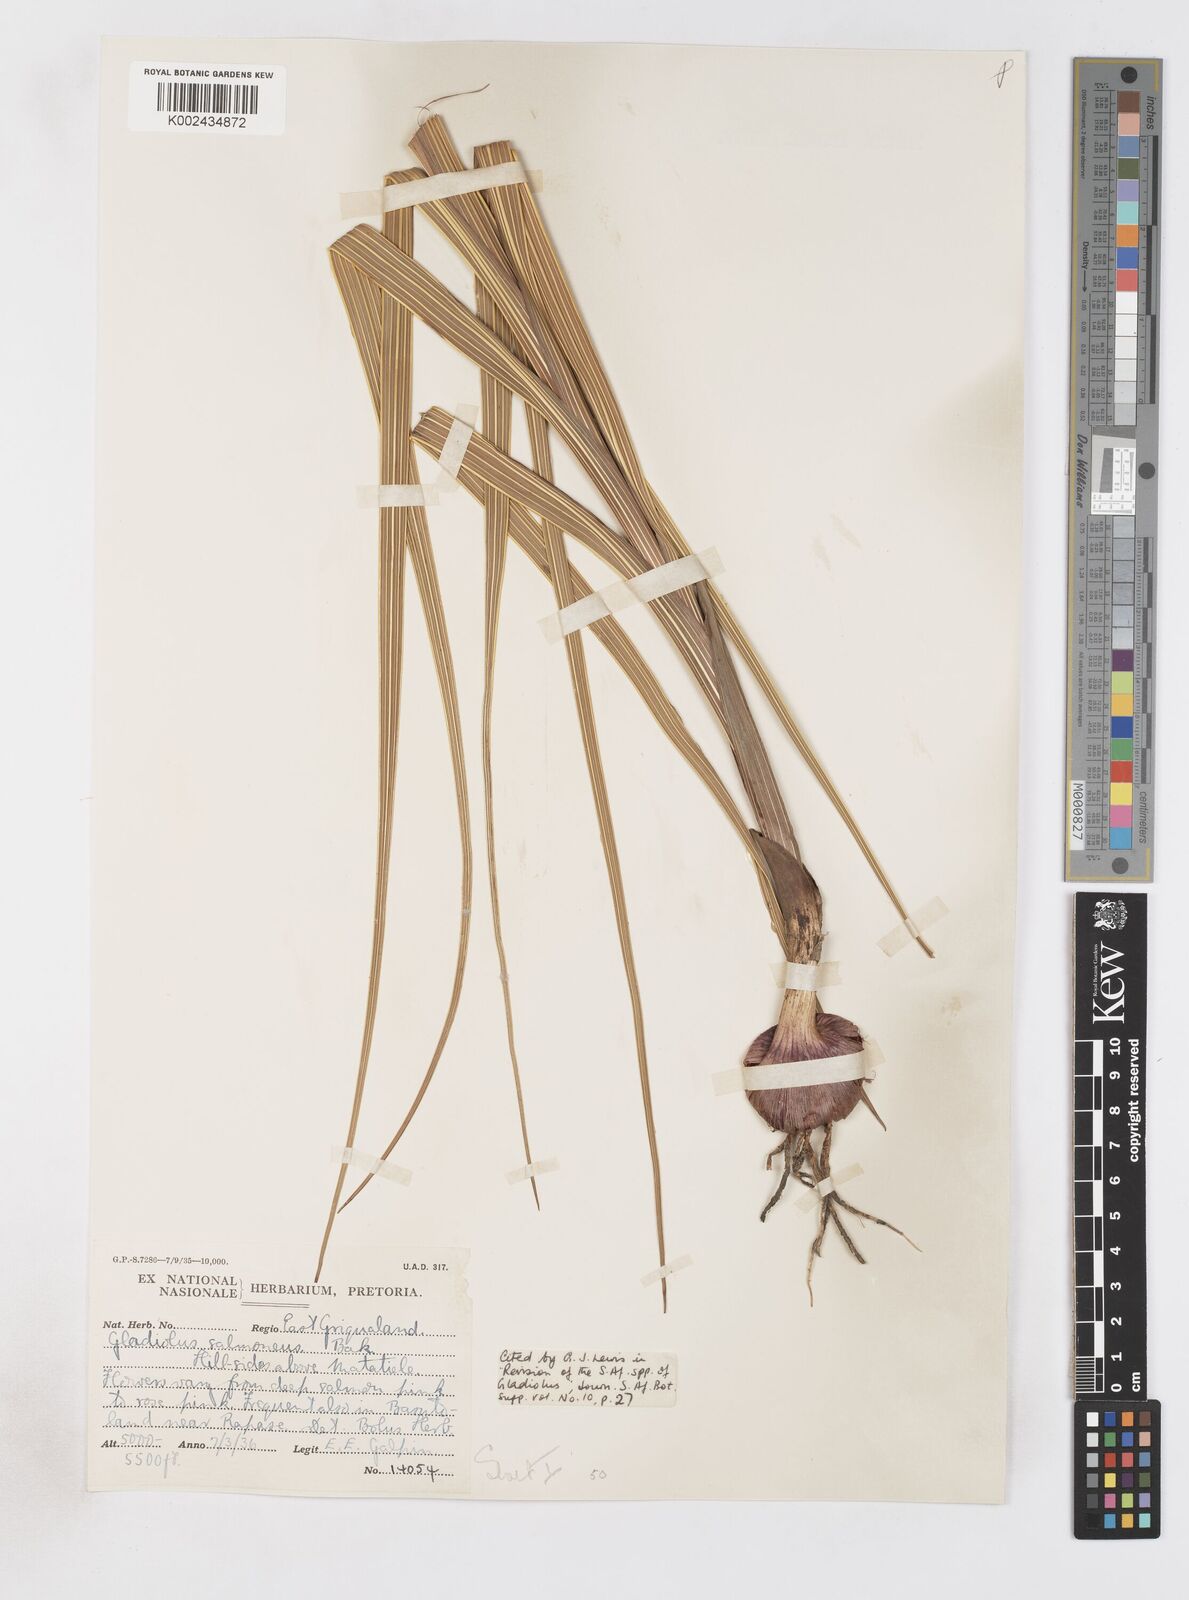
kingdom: Plantae
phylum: Tracheophyta
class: Liliopsida
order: Asparagales
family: Iridaceae
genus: Gladiolus
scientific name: Gladiolus oppositiflorus
